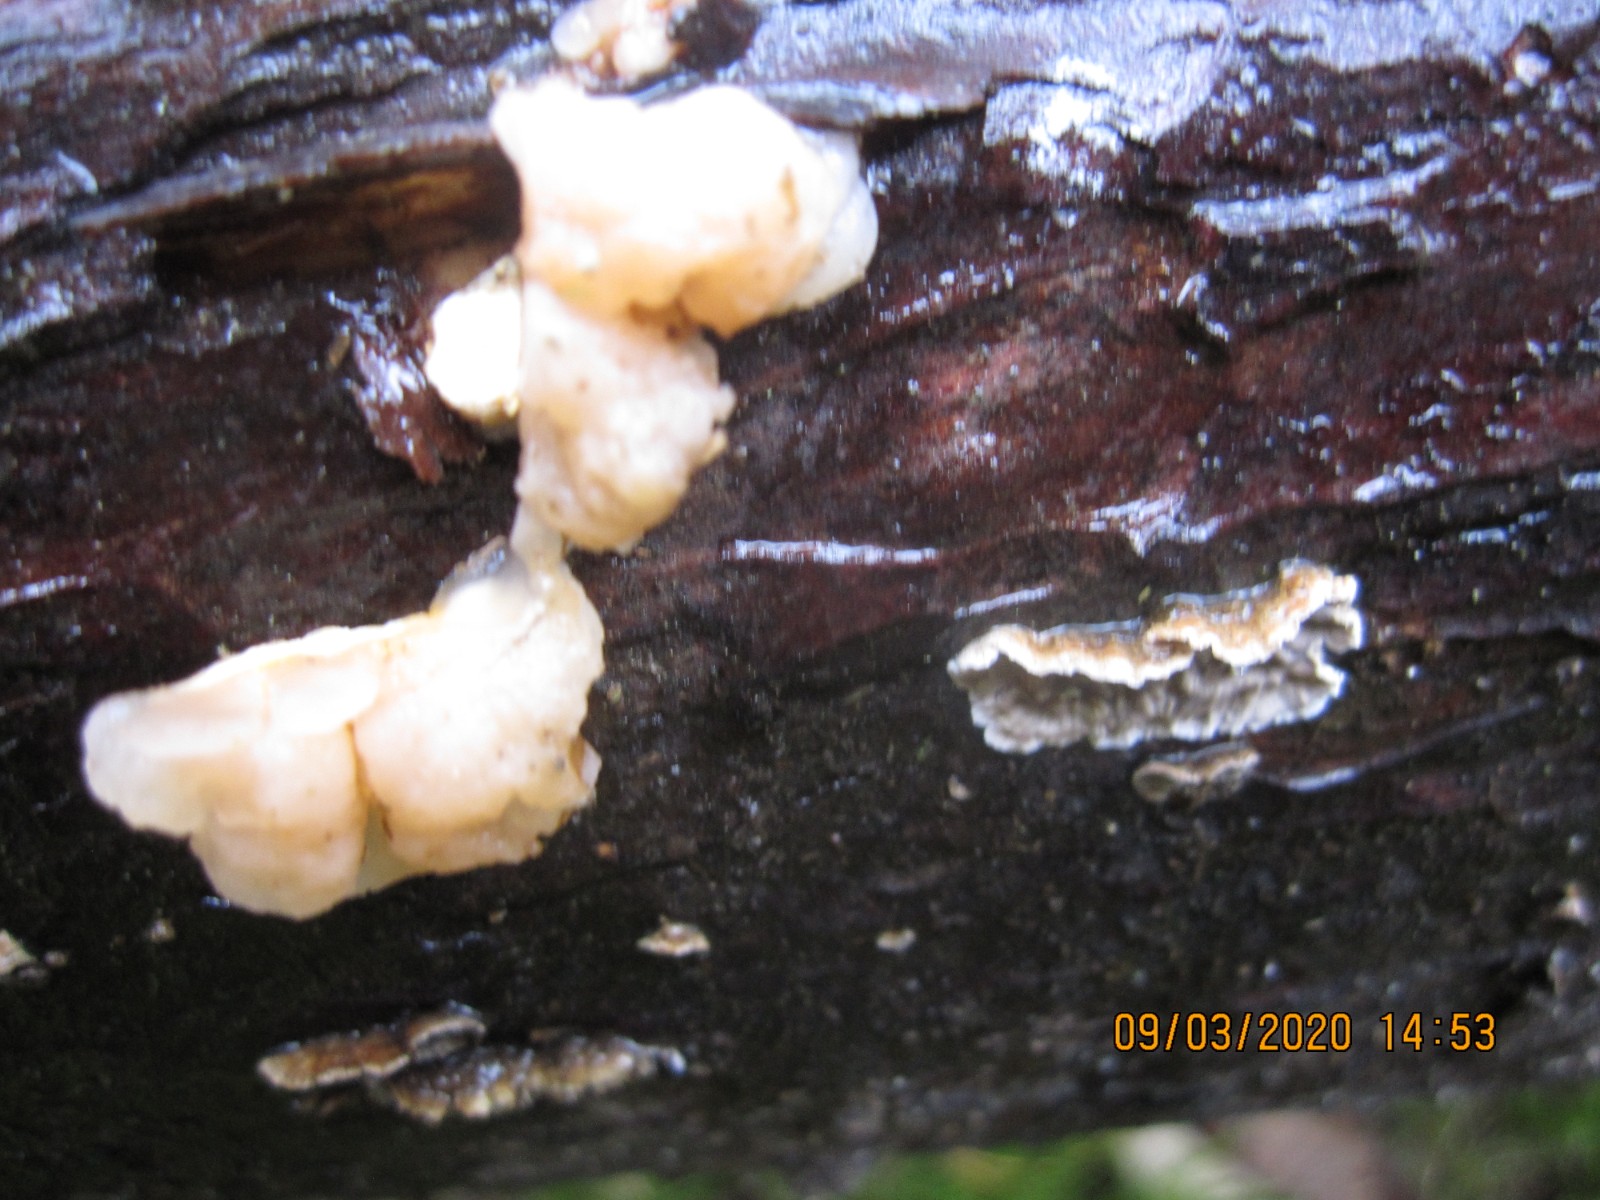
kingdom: Fungi
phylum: Basidiomycota
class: Tremellomycetes
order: Tremellales
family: Naemateliaceae
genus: Naematelia
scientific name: Naematelia encephala
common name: fyrre-bævresvamp
